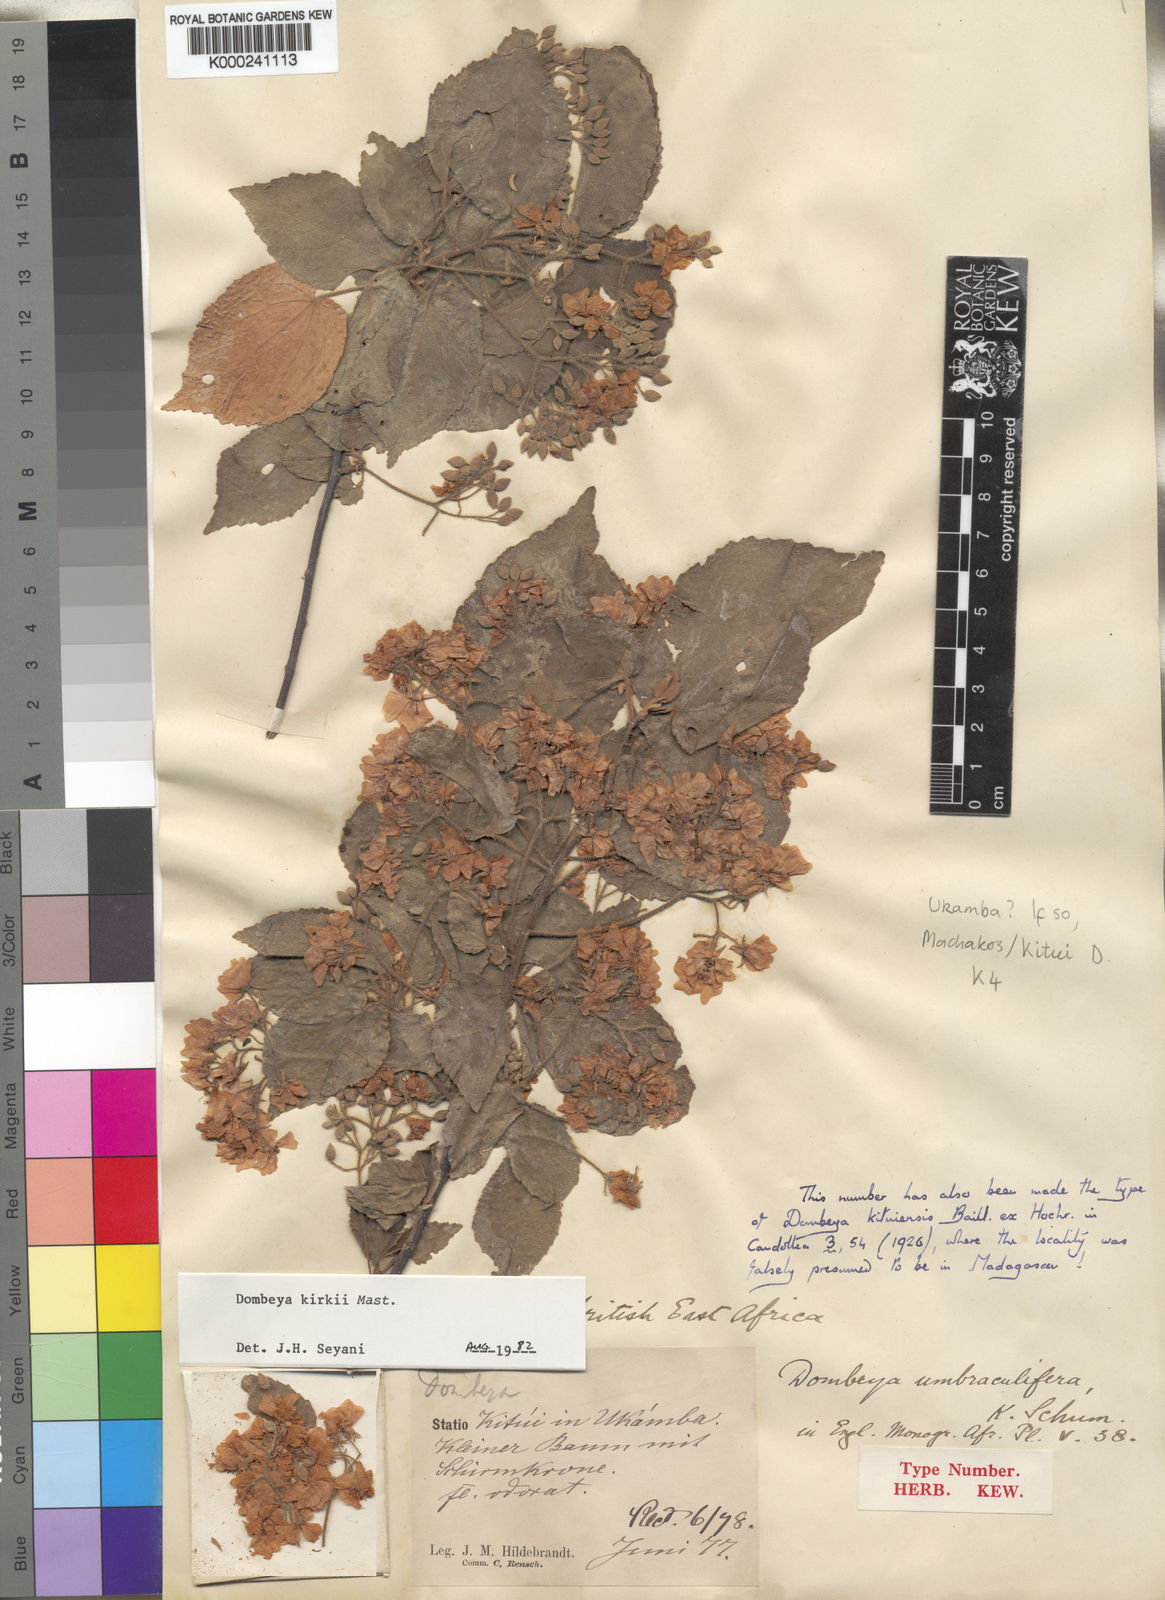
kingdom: Plantae
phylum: Tracheophyta
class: Magnoliopsida
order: Malvales
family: Malvaceae
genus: Dombeya
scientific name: Dombeya kirkii
